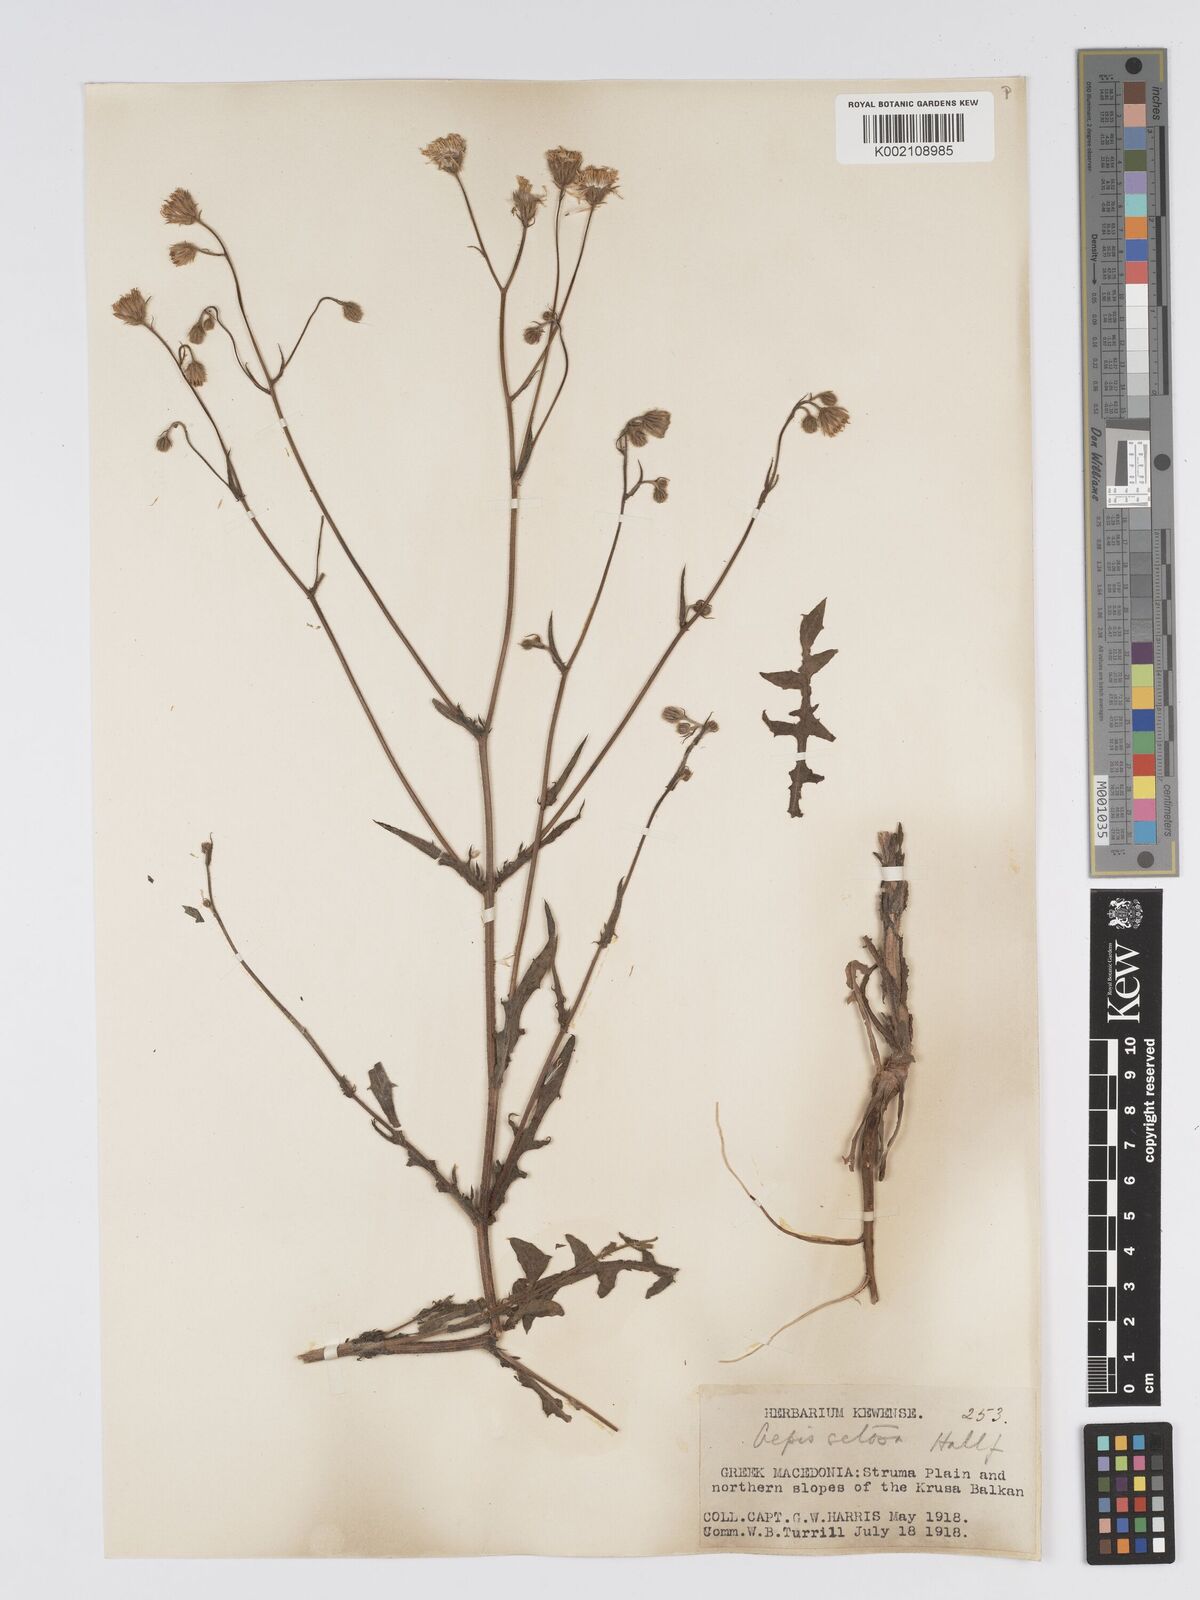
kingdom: Plantae
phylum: Tracheophyta
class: Magnoliopsida
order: Asterales
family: Asteraceae
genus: Crepis
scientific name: Crepis setosa
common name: Bristly hawk's-beard
